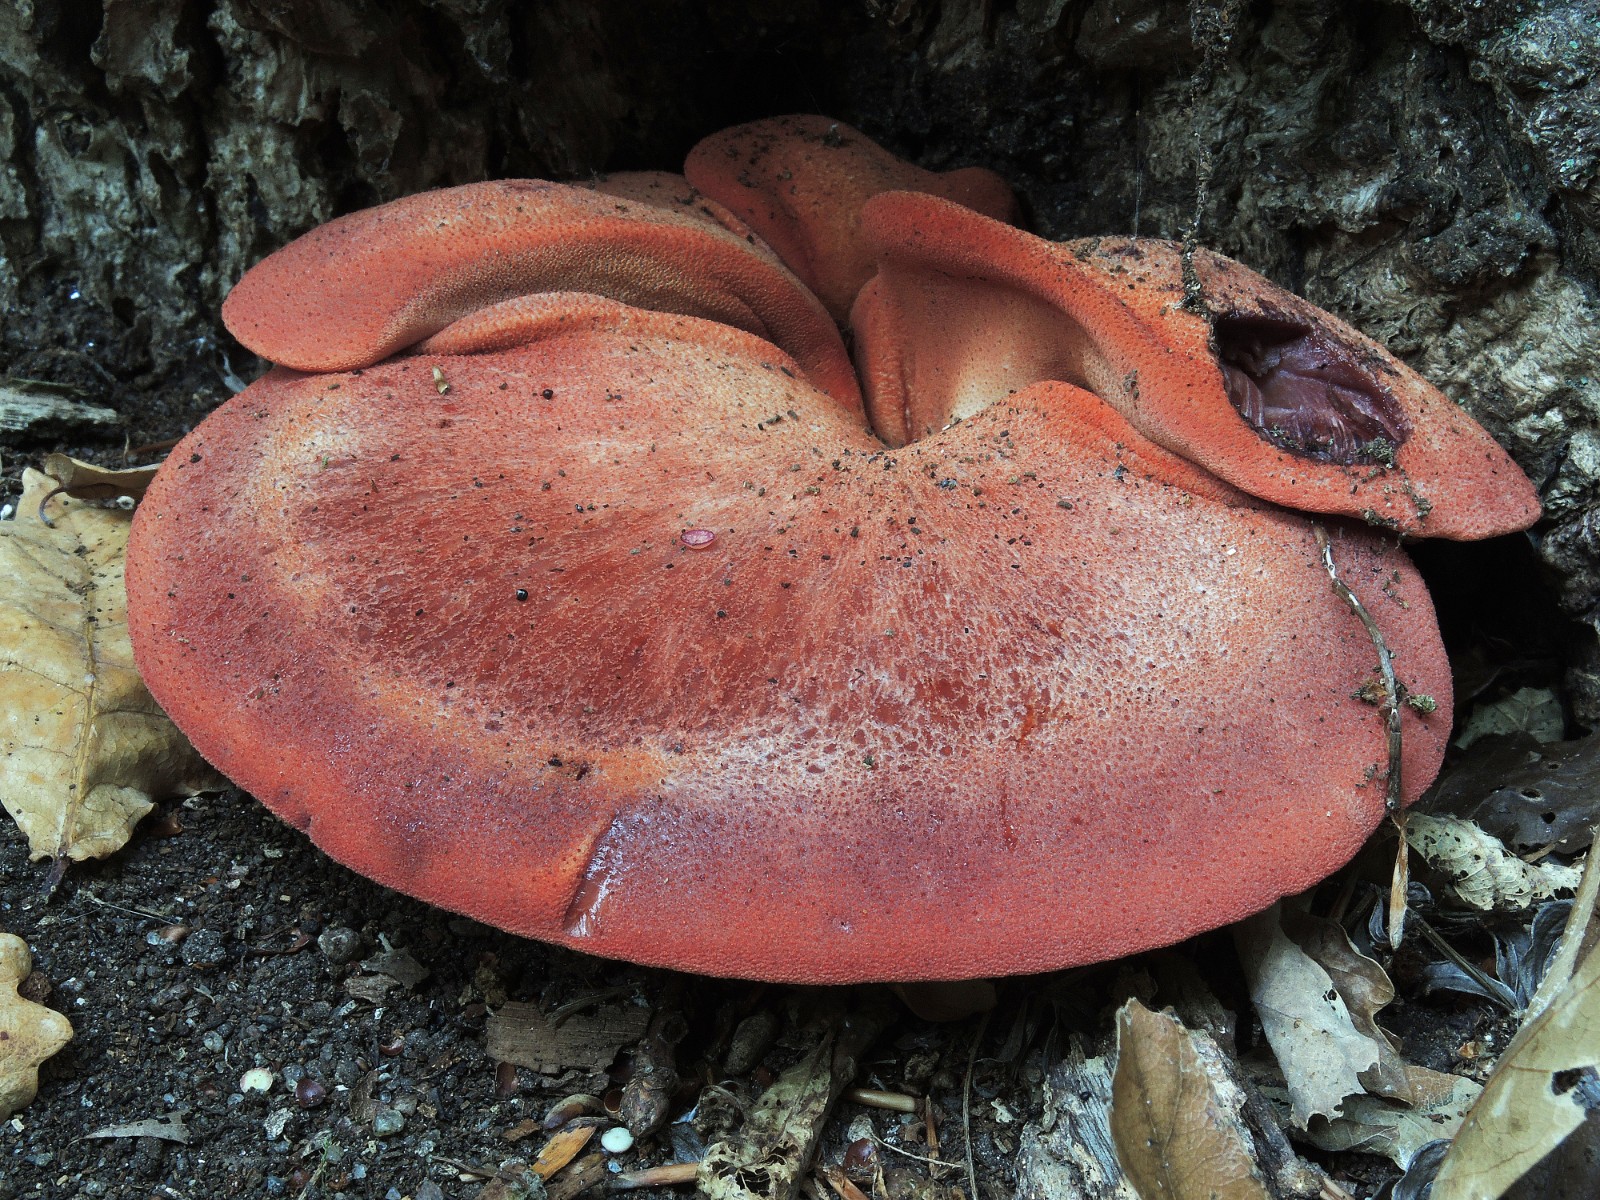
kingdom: Fungi
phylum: Basidiomycota
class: Agaricomycetes
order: Agaricales
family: Fistulinaceae
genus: Fistulina
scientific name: Fistulina hepatica
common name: oksetunge
